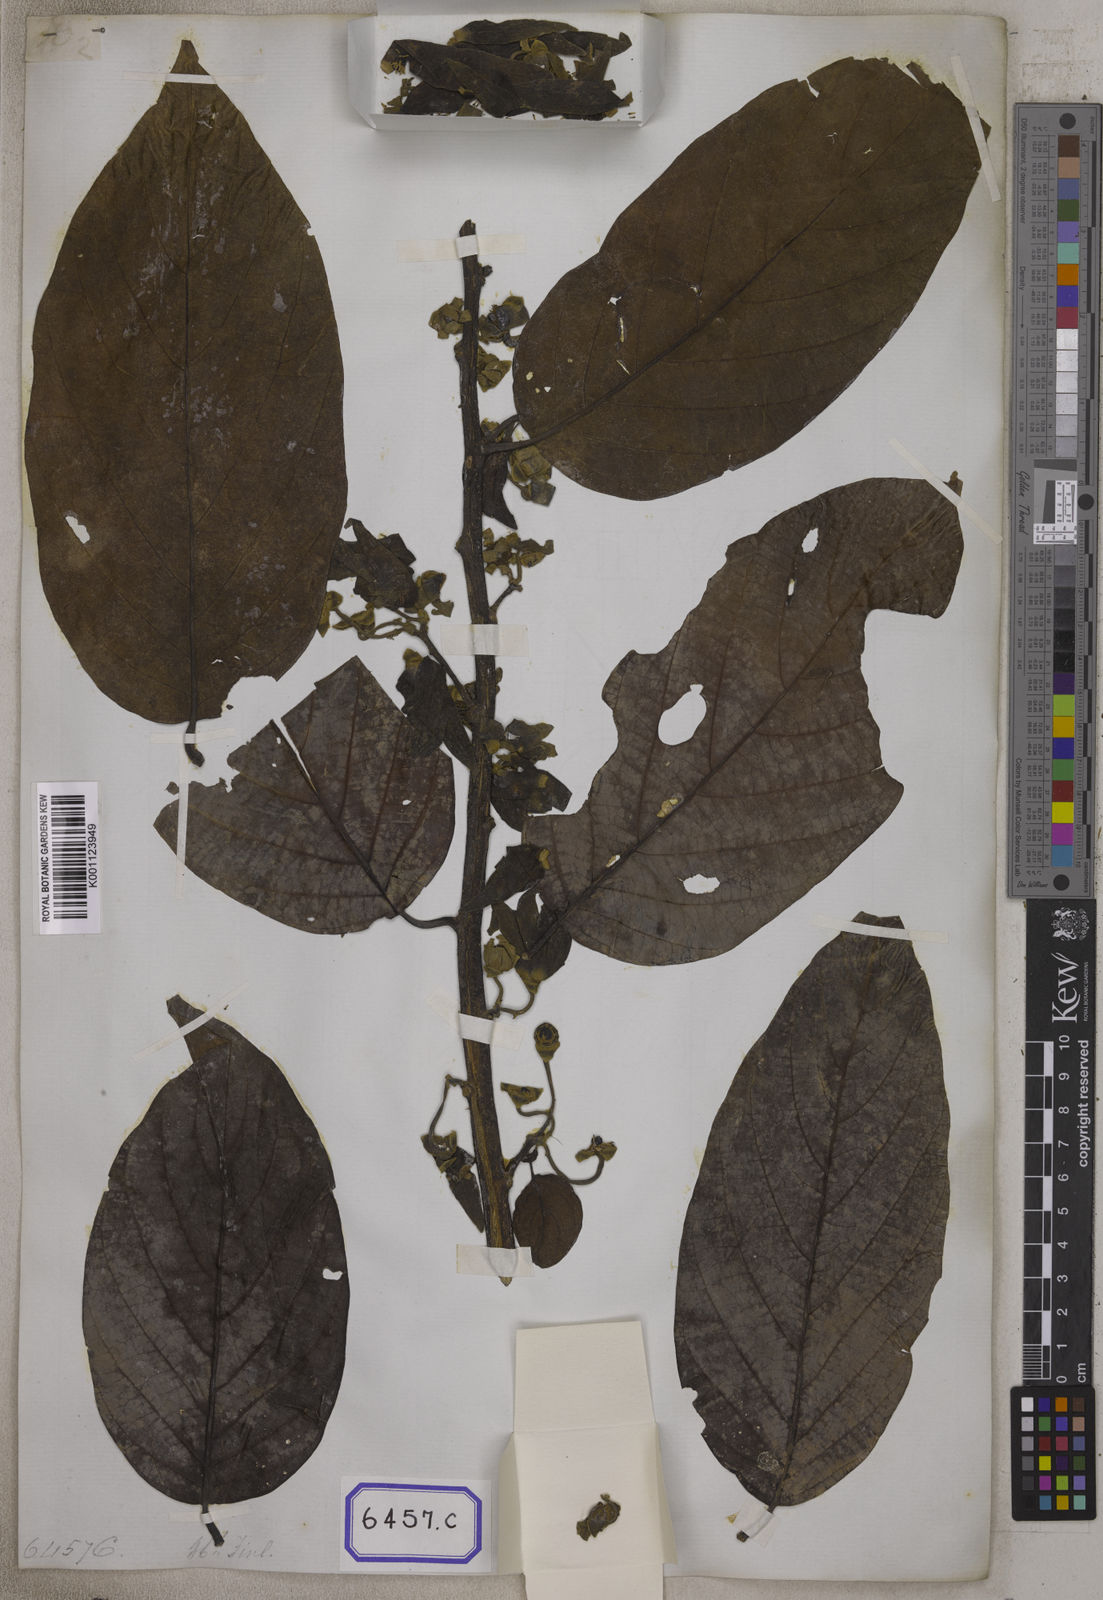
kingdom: Plantae
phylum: Tracheophyta
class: Magnoliopsida
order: Magnoliales
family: Annonaceae
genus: Uvaria
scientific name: Uvaria
